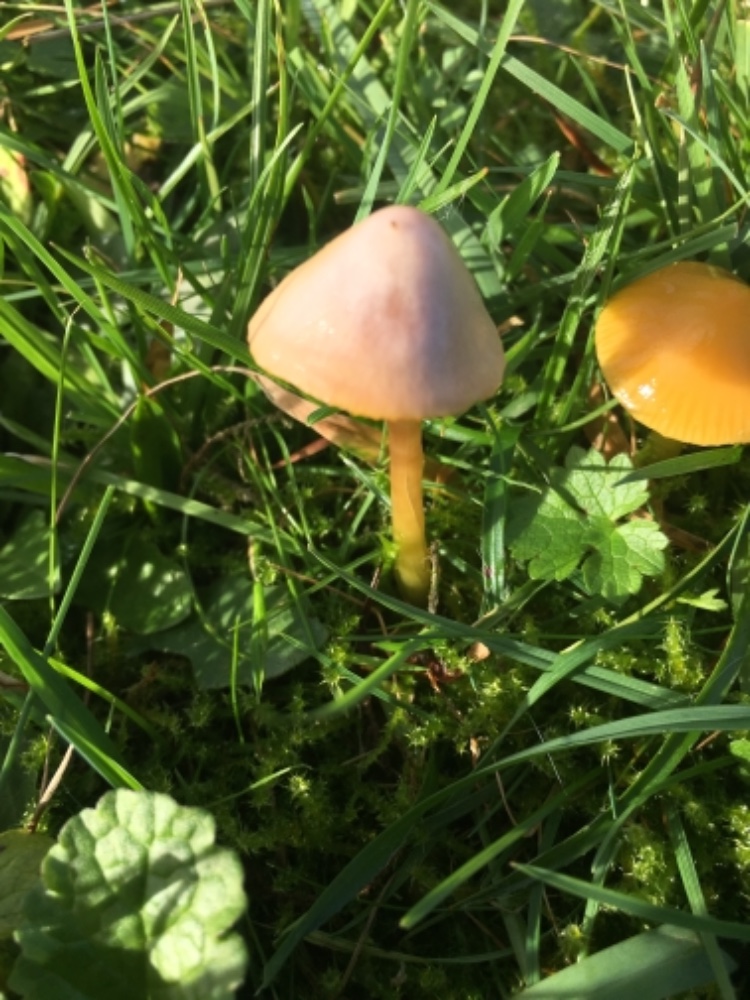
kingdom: Fungi
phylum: Basidiomycota
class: Agaricomycetes
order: Agaricales
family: Hygrophoraceae
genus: Gliophorus
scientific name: Gliophorus psittacinus
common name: papegøje-vokshat
